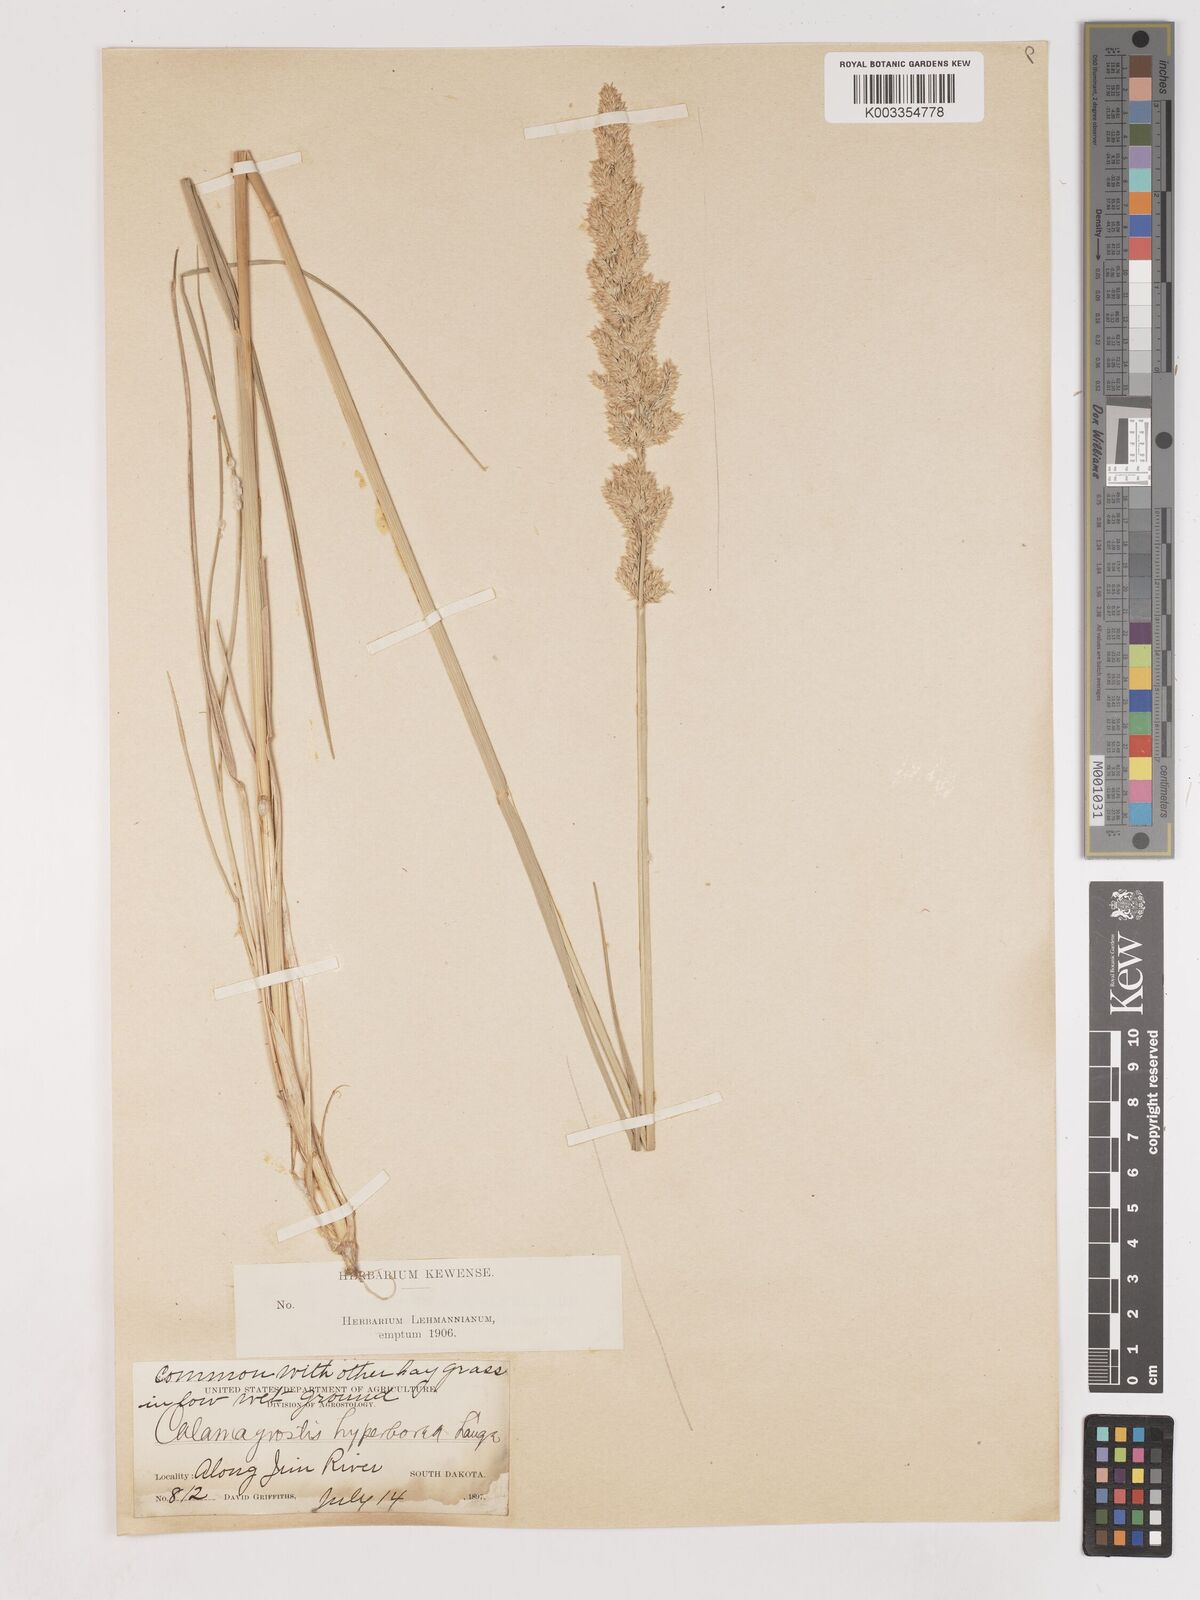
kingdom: Plantae
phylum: Tracheophyta
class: Liliopsida
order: Poales
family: Poaceae
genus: Cinnagrostis
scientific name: Cinnagrostis recta
